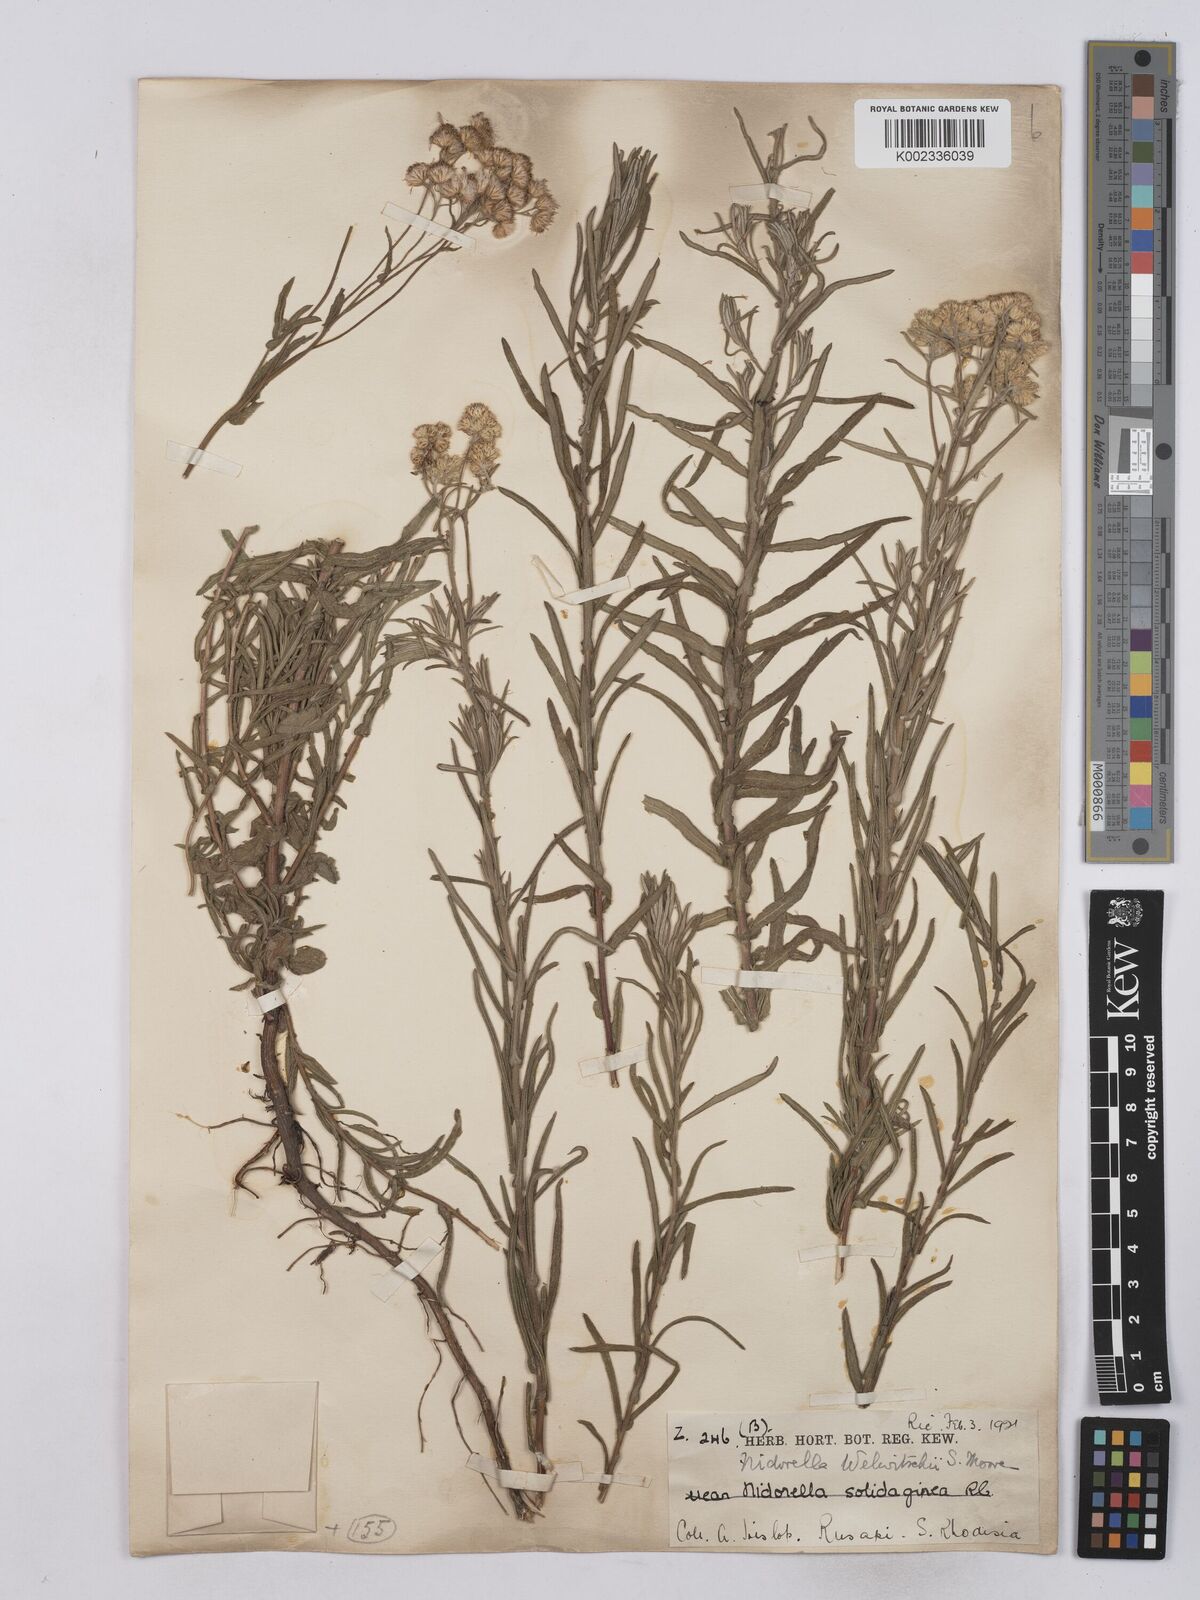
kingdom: Plantae
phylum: Tracheophyta
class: Magnoliopsida
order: Asterales
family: Asteraceae
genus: Nidorella
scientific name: Nidorella welwitschii
